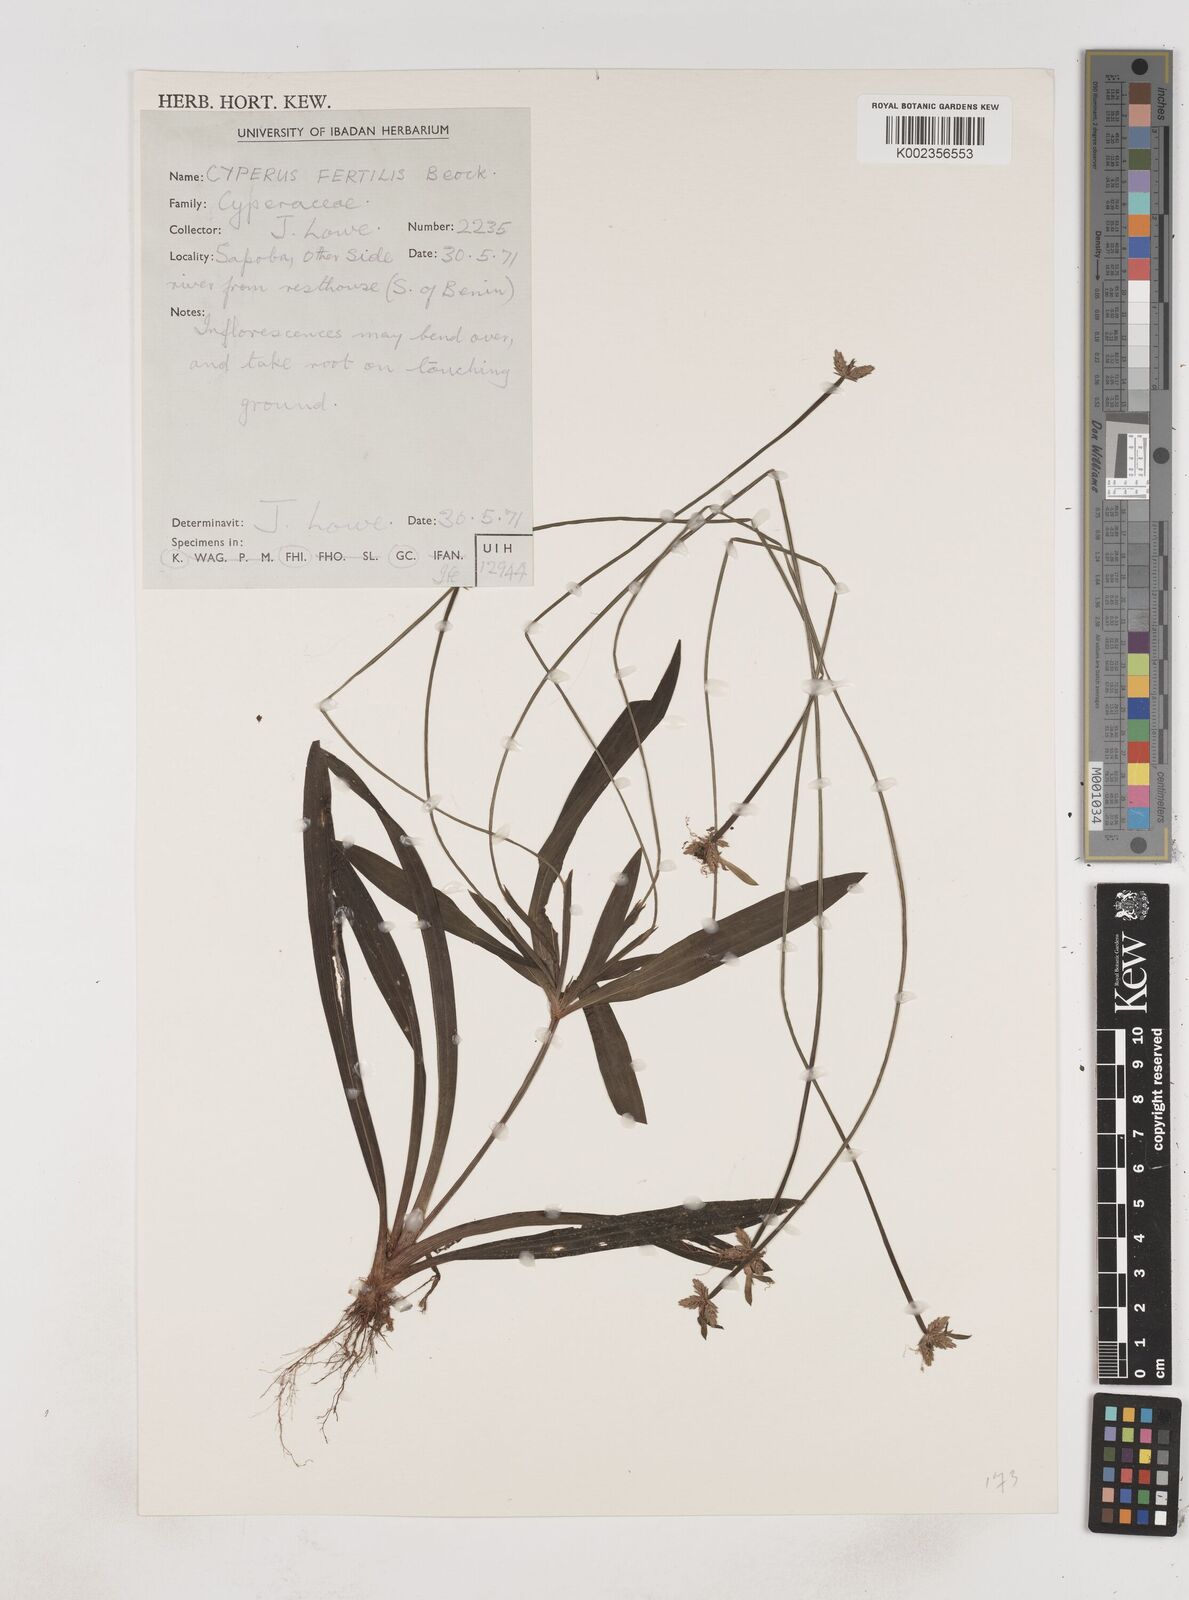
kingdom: Plantae
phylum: Tracheophyta
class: Liliopsida
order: Poales
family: Cyperaceae
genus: Cyperus
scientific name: Cyperus fertilis
